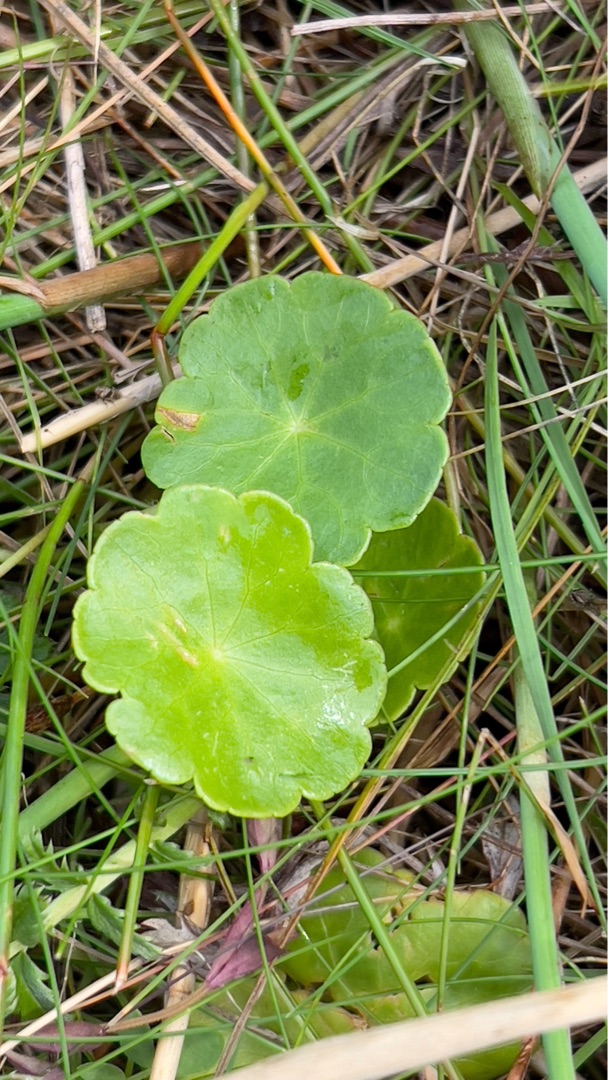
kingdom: Plantae
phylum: Tracheophyta
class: Magnoliopsida
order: Apiales
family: Araliaceae
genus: Hydrocotyle
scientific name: Hydrocotyle vulgaris
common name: Vandnavle
